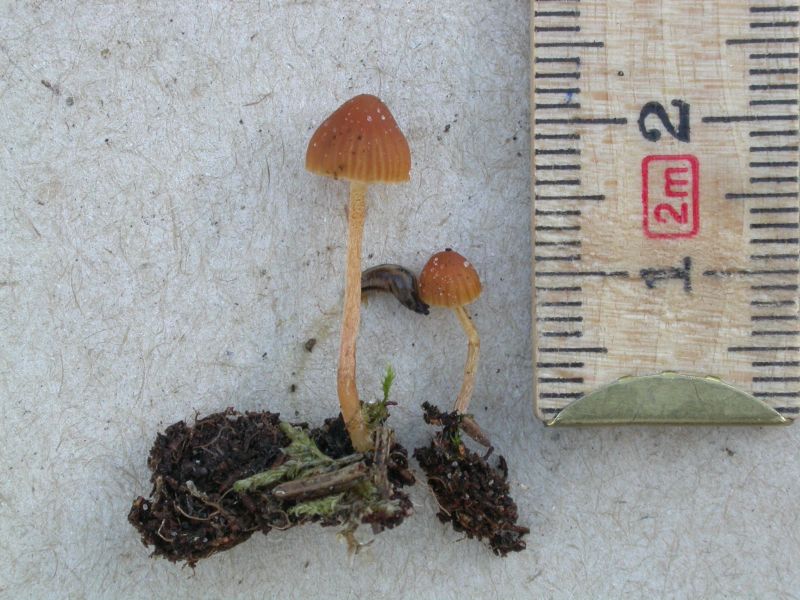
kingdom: Fungi
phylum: Basidiomycota
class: Agaricomycetes
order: Agaricales
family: Hymenogastraceae
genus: Galerina
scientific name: Galerina calyptrata
